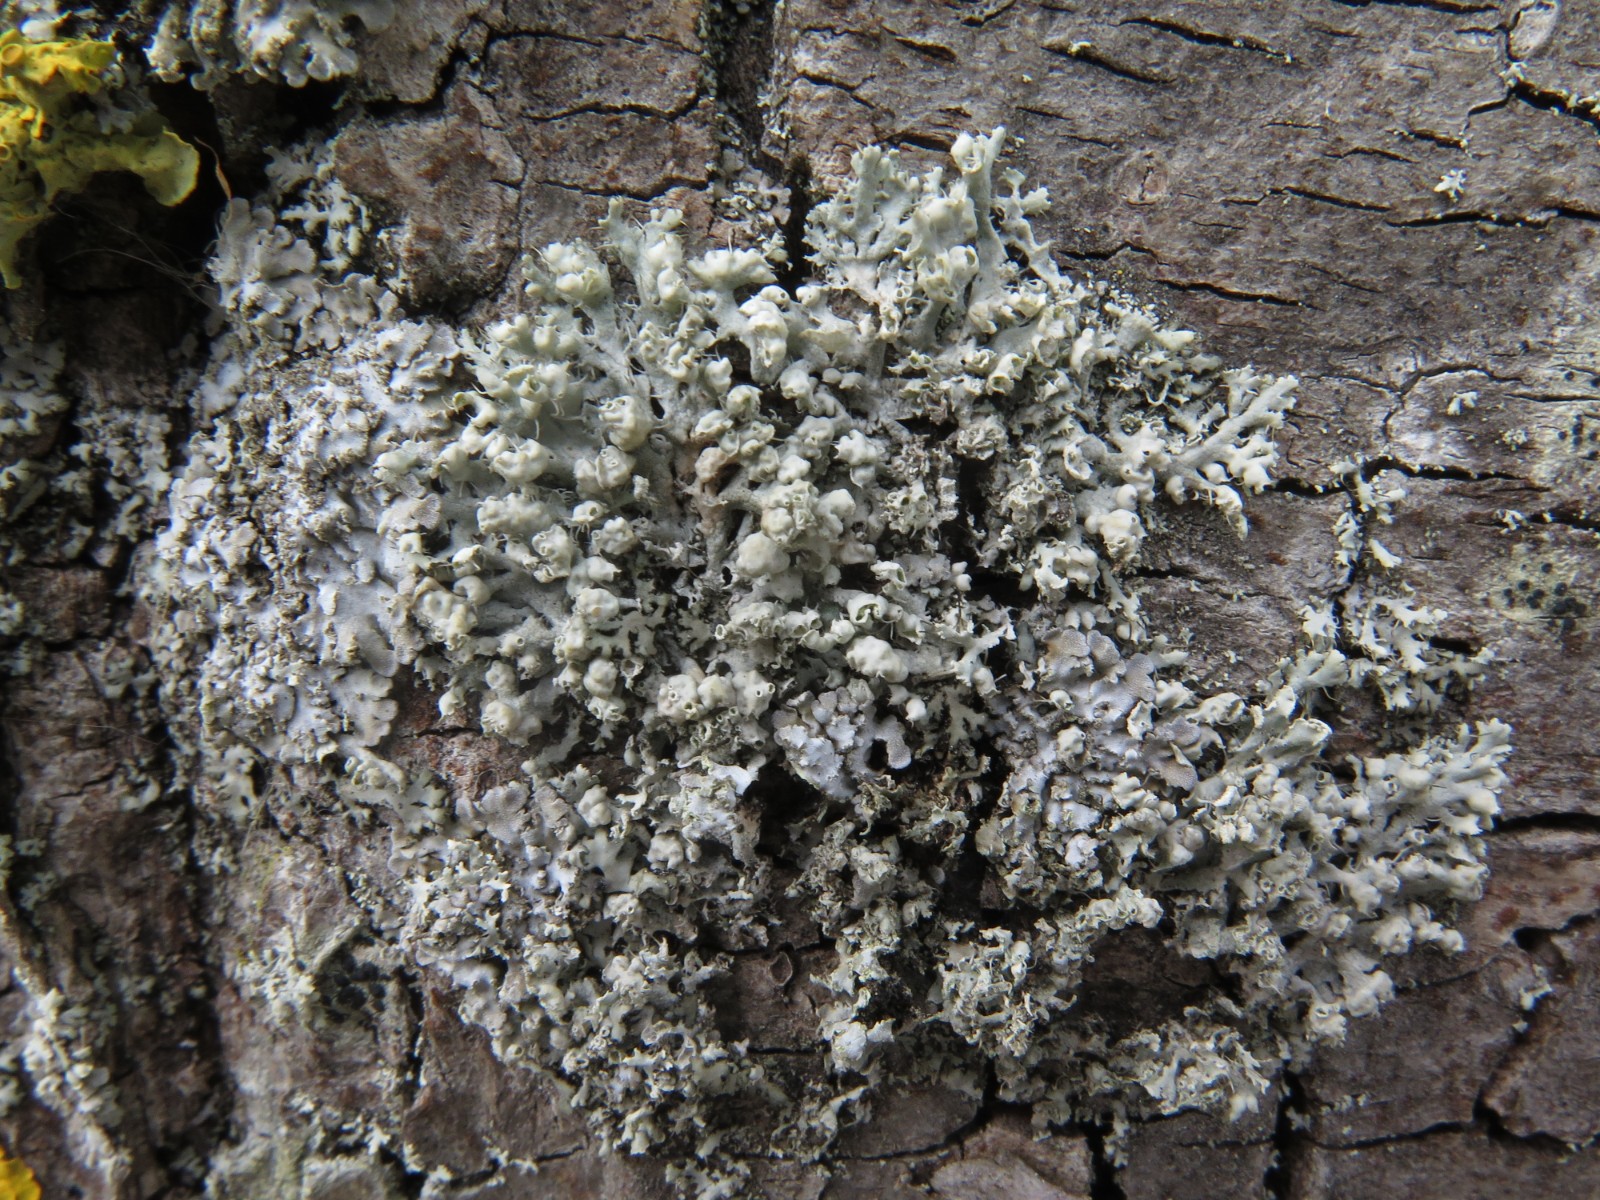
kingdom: Fungi
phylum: Ascomycota
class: Lecanoromycetes
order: Caliciales
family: Physciaceae
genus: Physcia
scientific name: Physcia adscendens
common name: hætte-rosetlav
